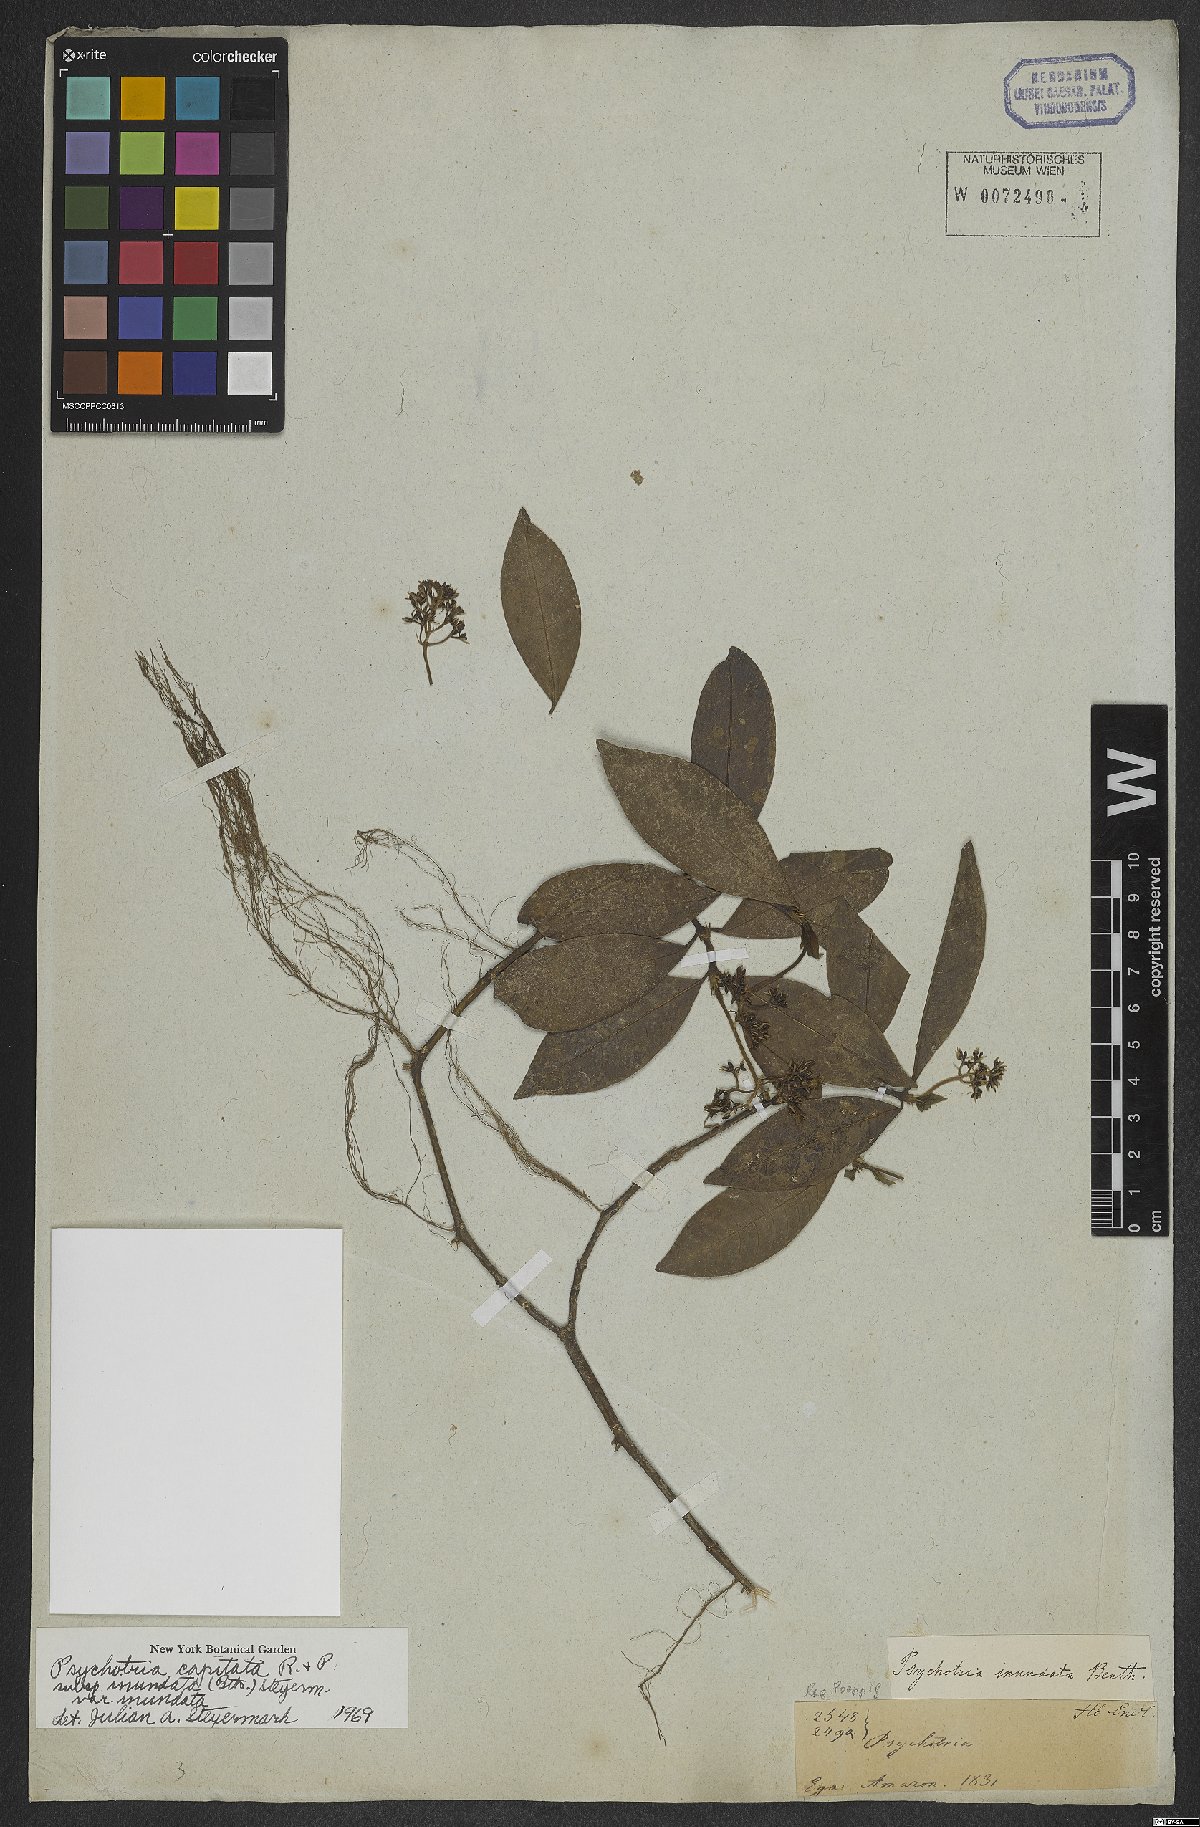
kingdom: Plantae
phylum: Tracheophyta
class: Magnoliopsida
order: Gentianales
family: Rubiaceae
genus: Palicourea
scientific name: Palicourea violacea
